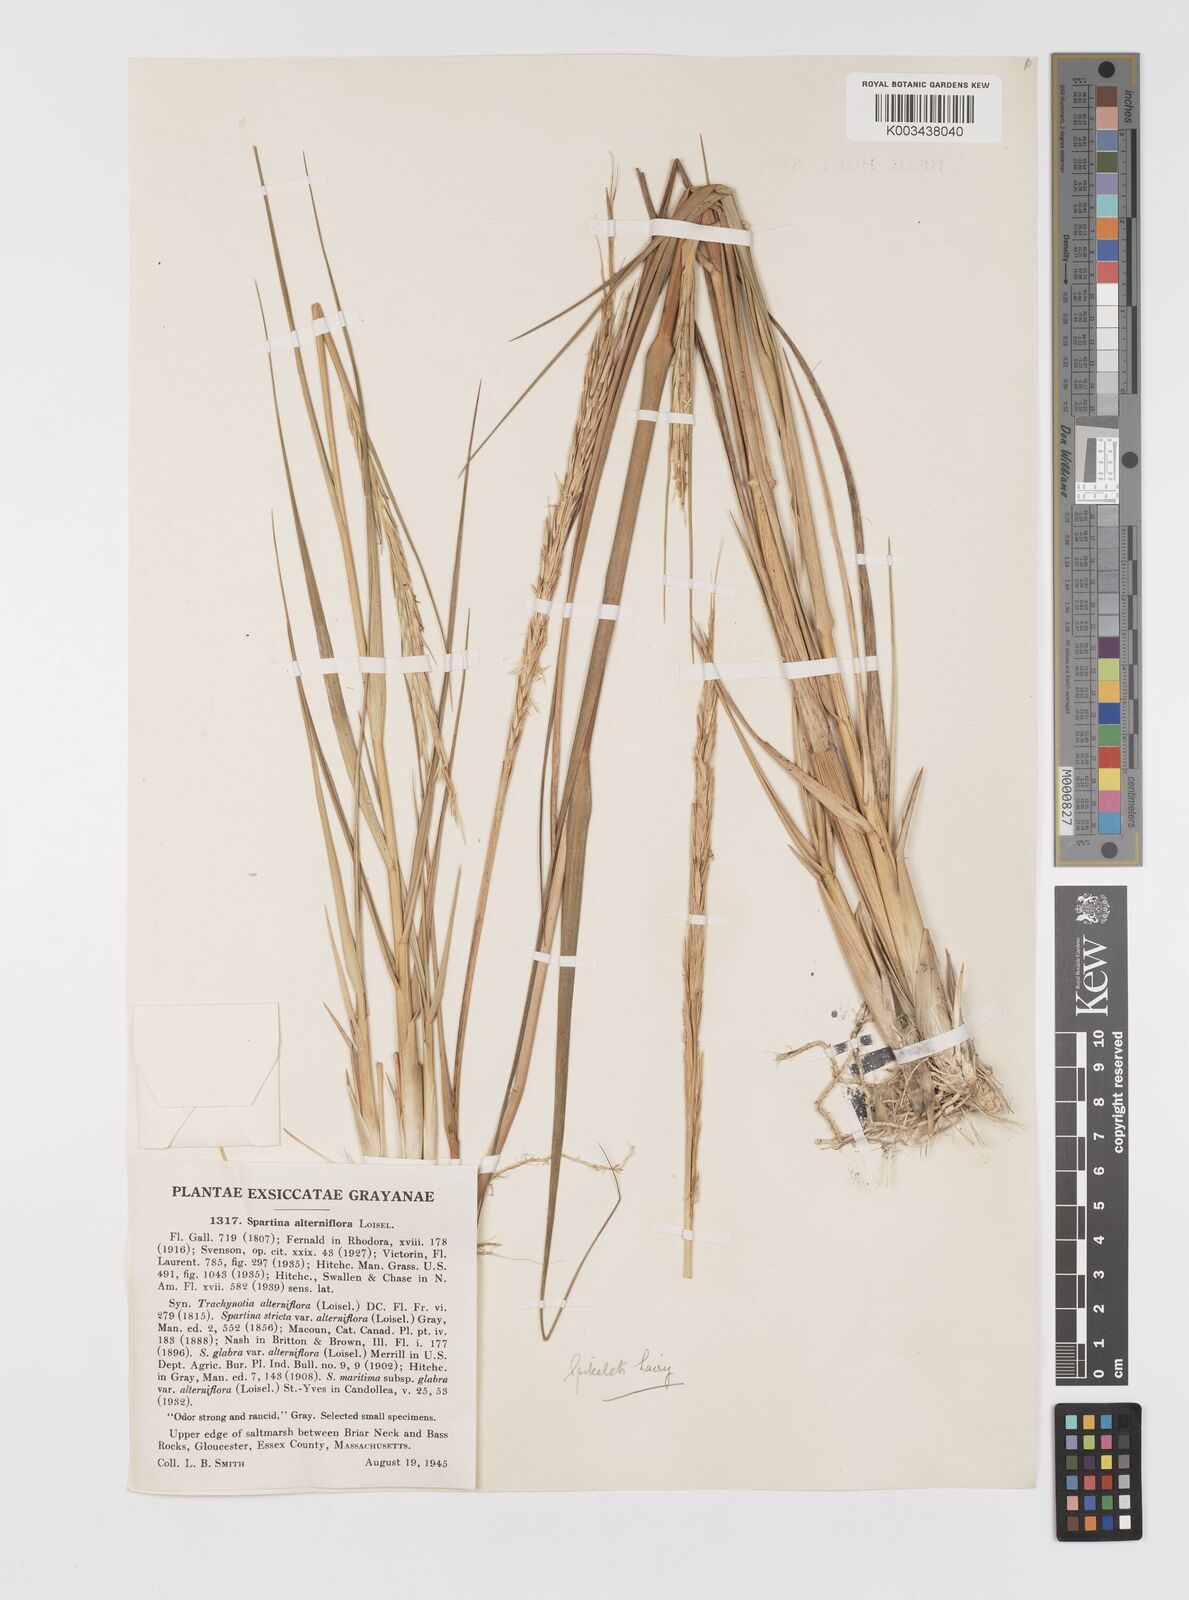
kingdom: Plantae
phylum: Tracheophyta
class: Liliopsida
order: Poales
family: Poaceae
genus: Sporobolus
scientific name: Sporobolus alterniflorus
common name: Atlantic cordgrass
